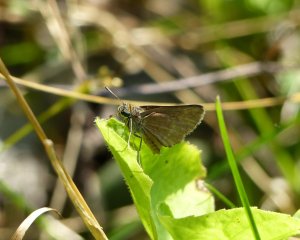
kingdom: Animalia
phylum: Arthropoda
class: Insecta
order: Lepidoptera
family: Hesperiidae
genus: Euphyes
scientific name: Euphyes vestris
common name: Dun Skipper
